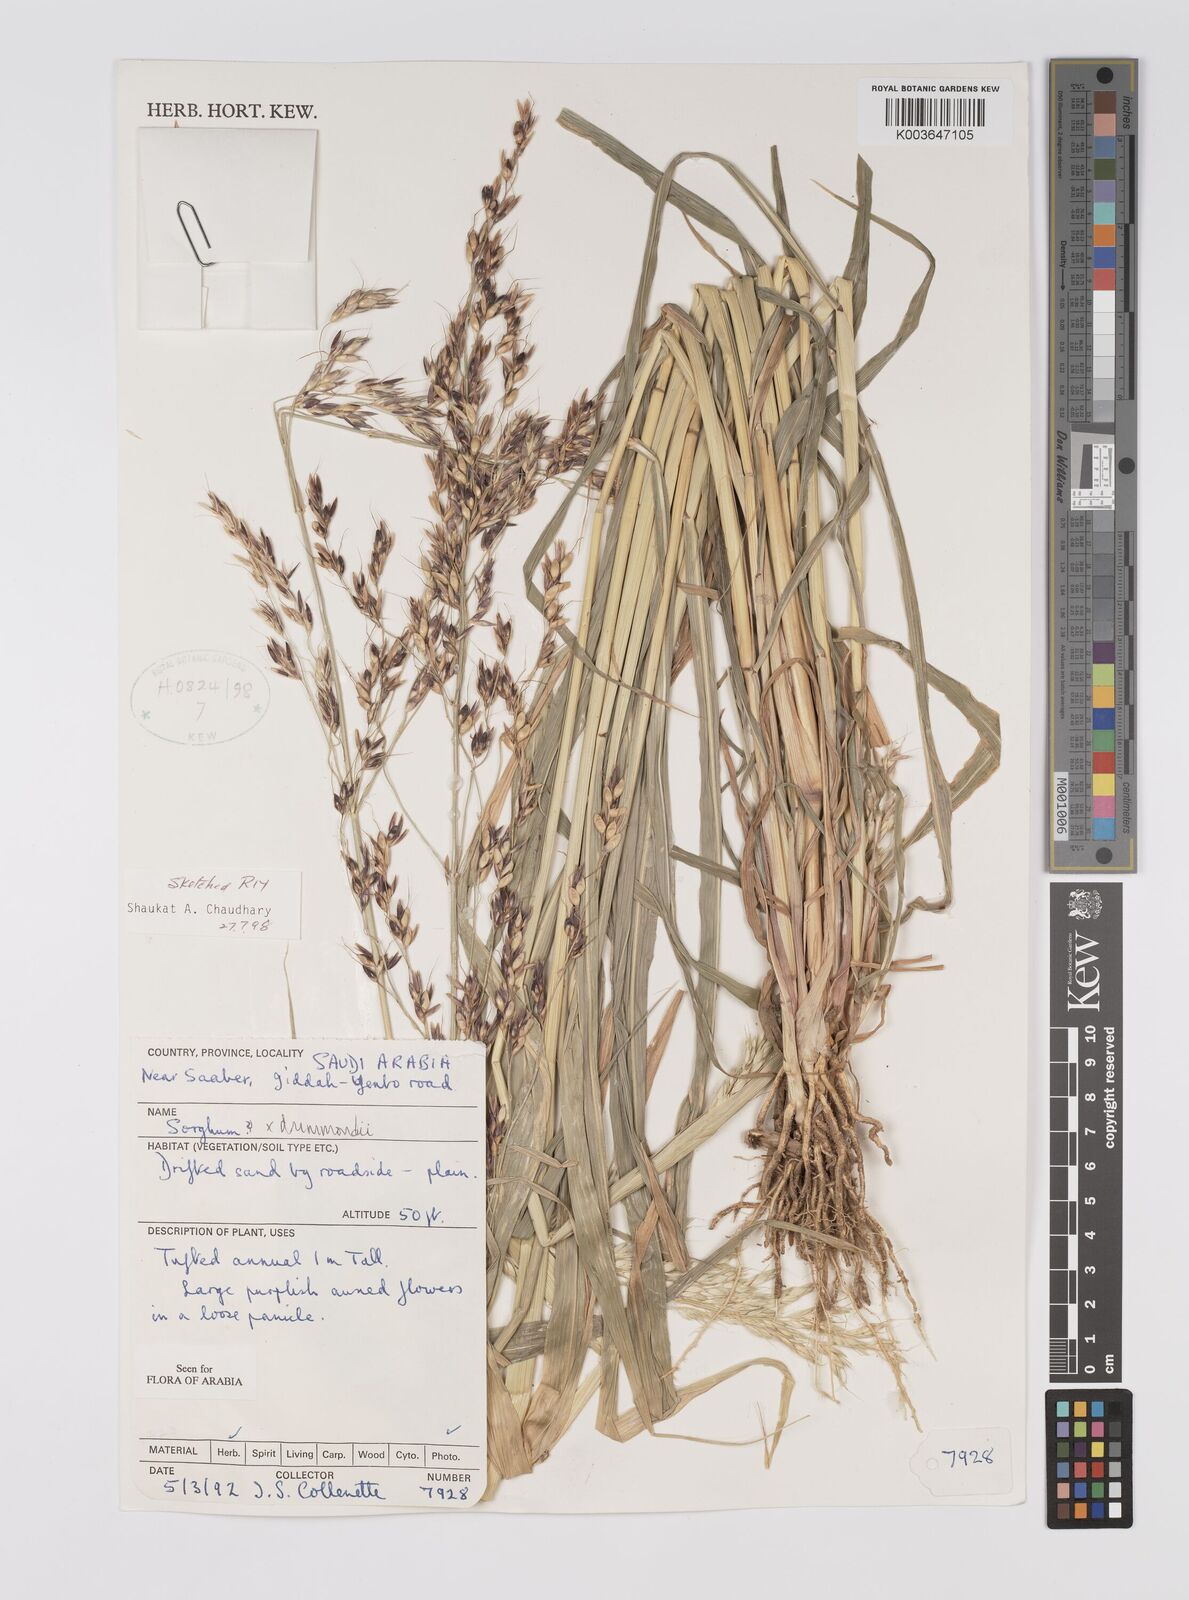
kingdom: Plantae
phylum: Tracheophyta
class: Liliopsida
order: Poales
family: Poaceae
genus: Sorghum
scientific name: Sorghum drummondii
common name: Sudangrass
